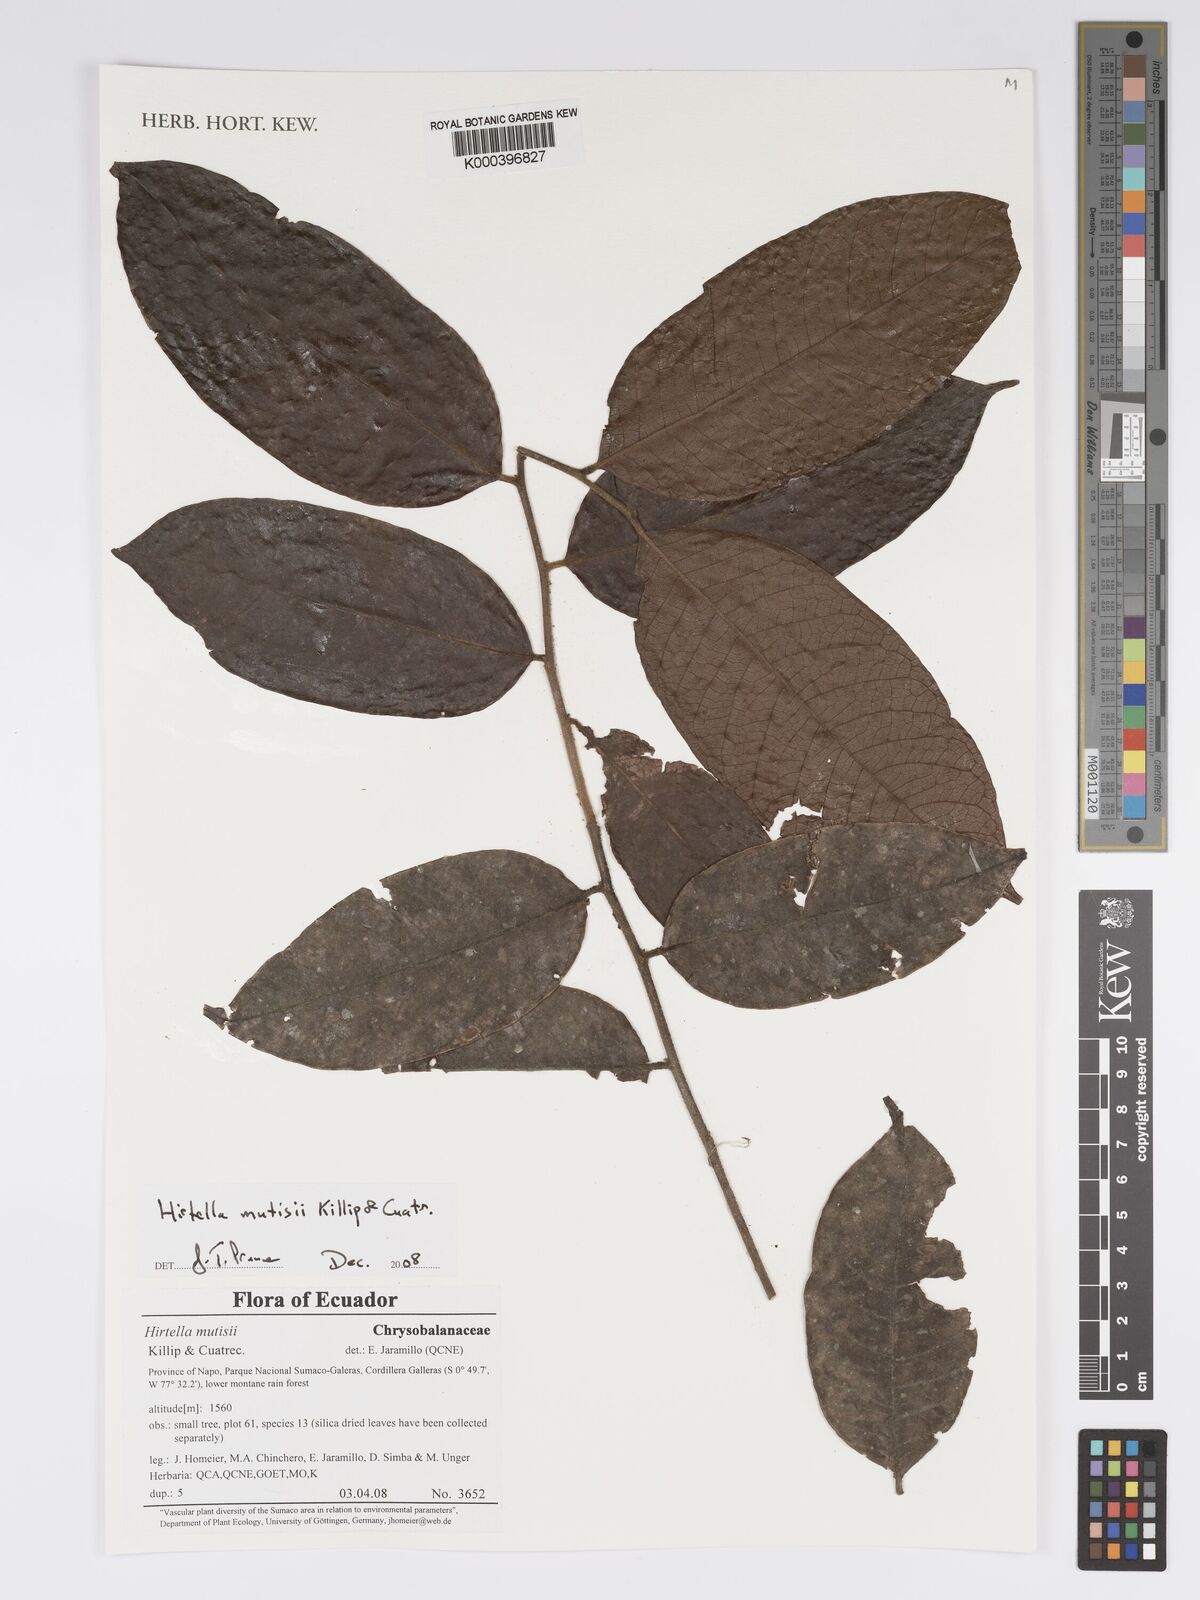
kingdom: Plantae
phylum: Tracheophyta
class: Magnoliopsida
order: Malpighiales
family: Chrysobalanaceae
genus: Hirtella
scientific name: Hirtella mutisii
